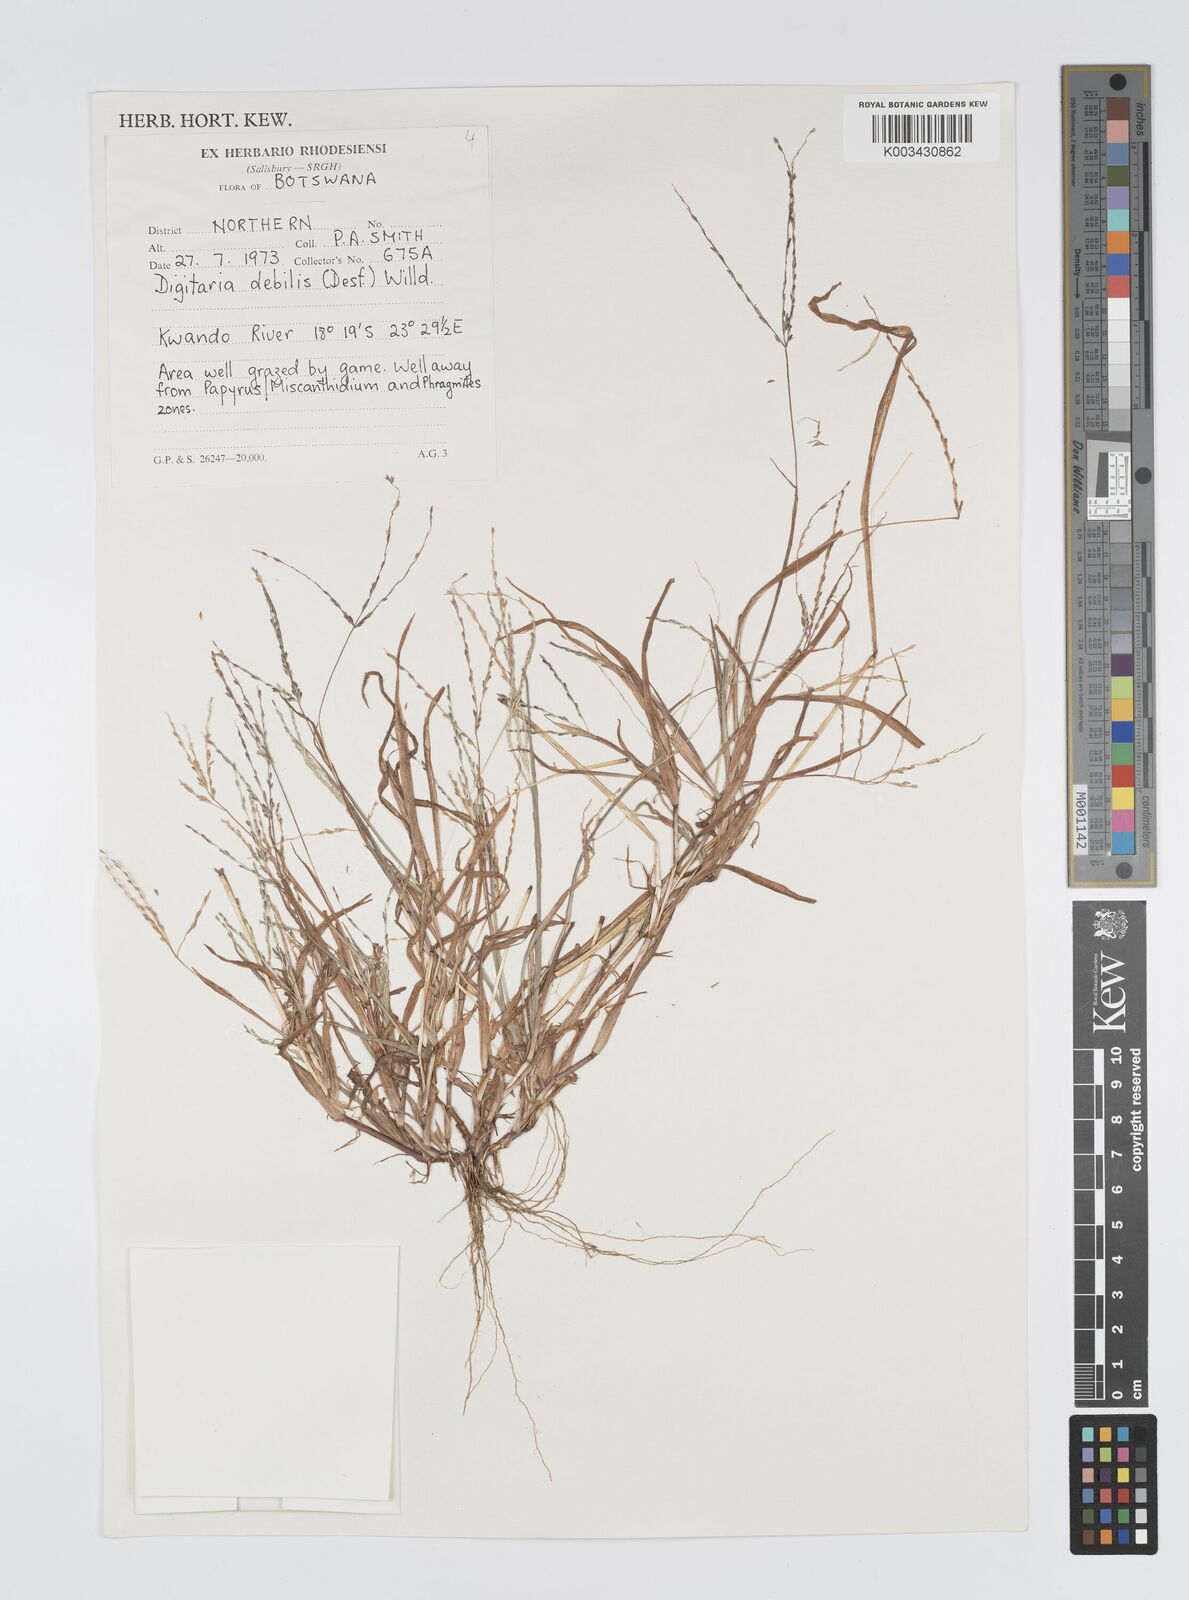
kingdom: Plantae
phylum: Tracheophyta
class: Liliopsida
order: Poales
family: Poaceae
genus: Digitaria
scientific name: Digitaria debilis
